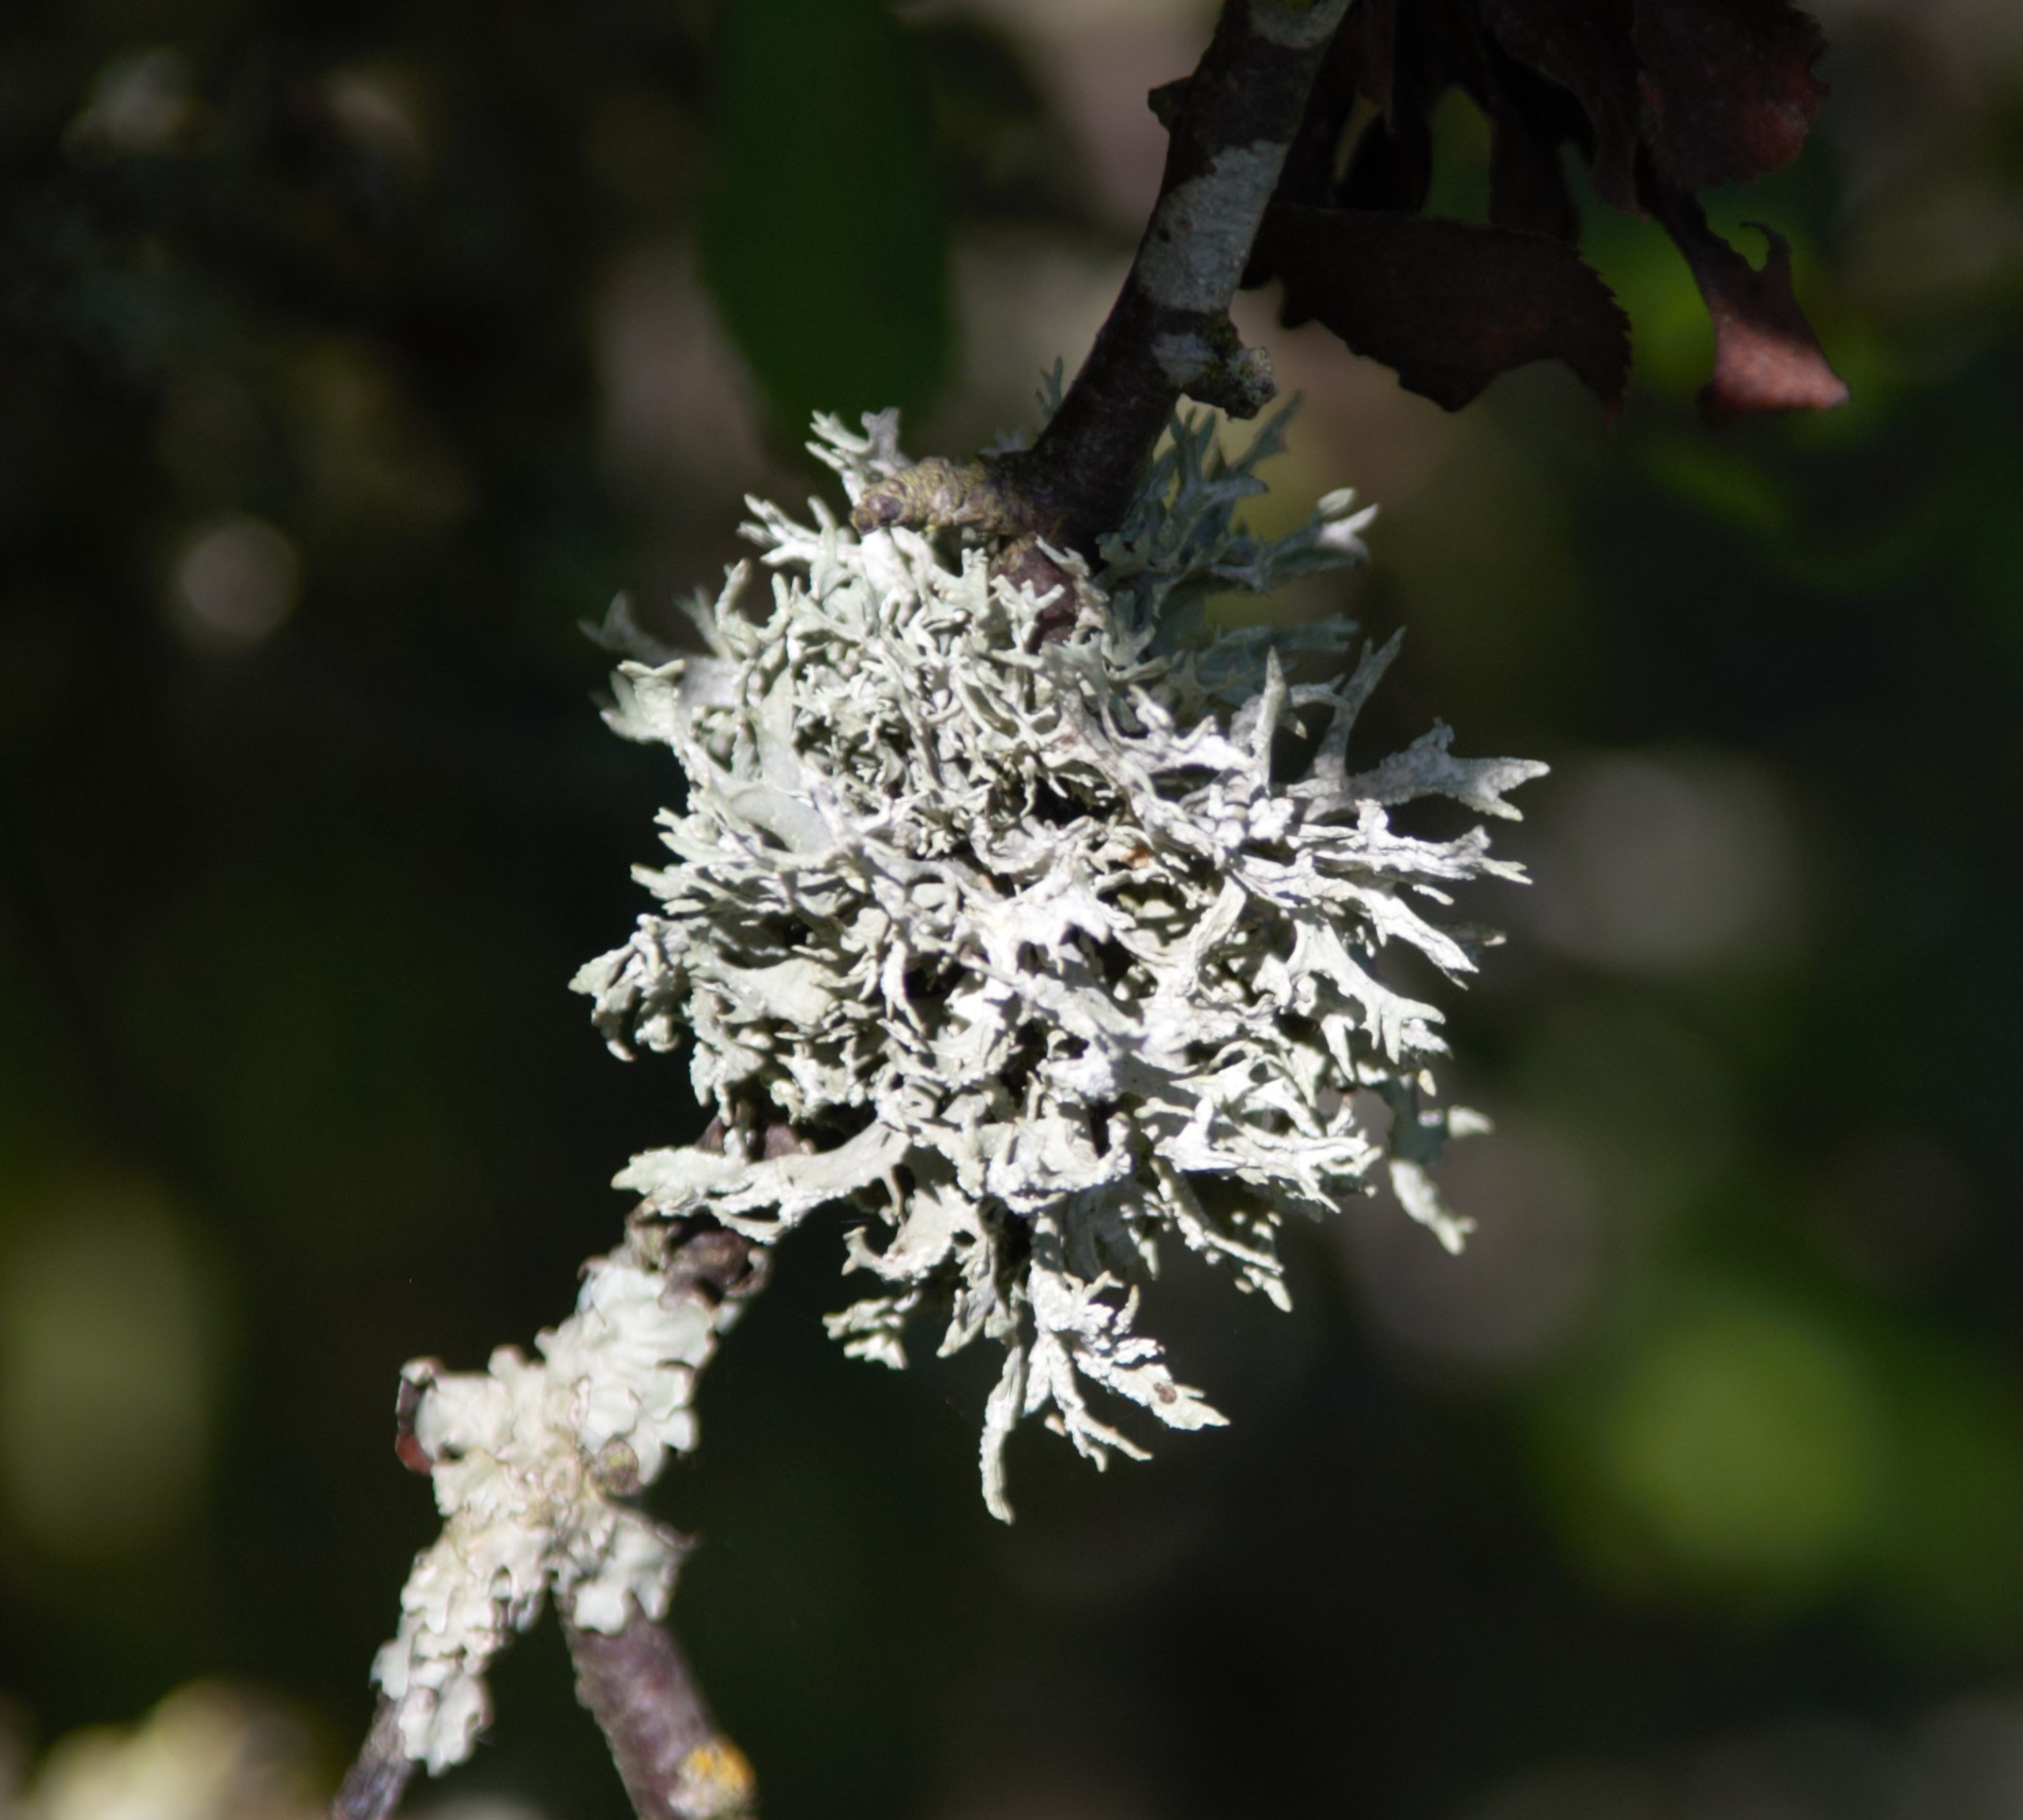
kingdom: Fungi
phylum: Ascomycota
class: Lecanoromycetes
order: Lecanorales
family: Parmeliaceae
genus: Evernia
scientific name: Evernia prunastri
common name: Almindelig slåenlav
